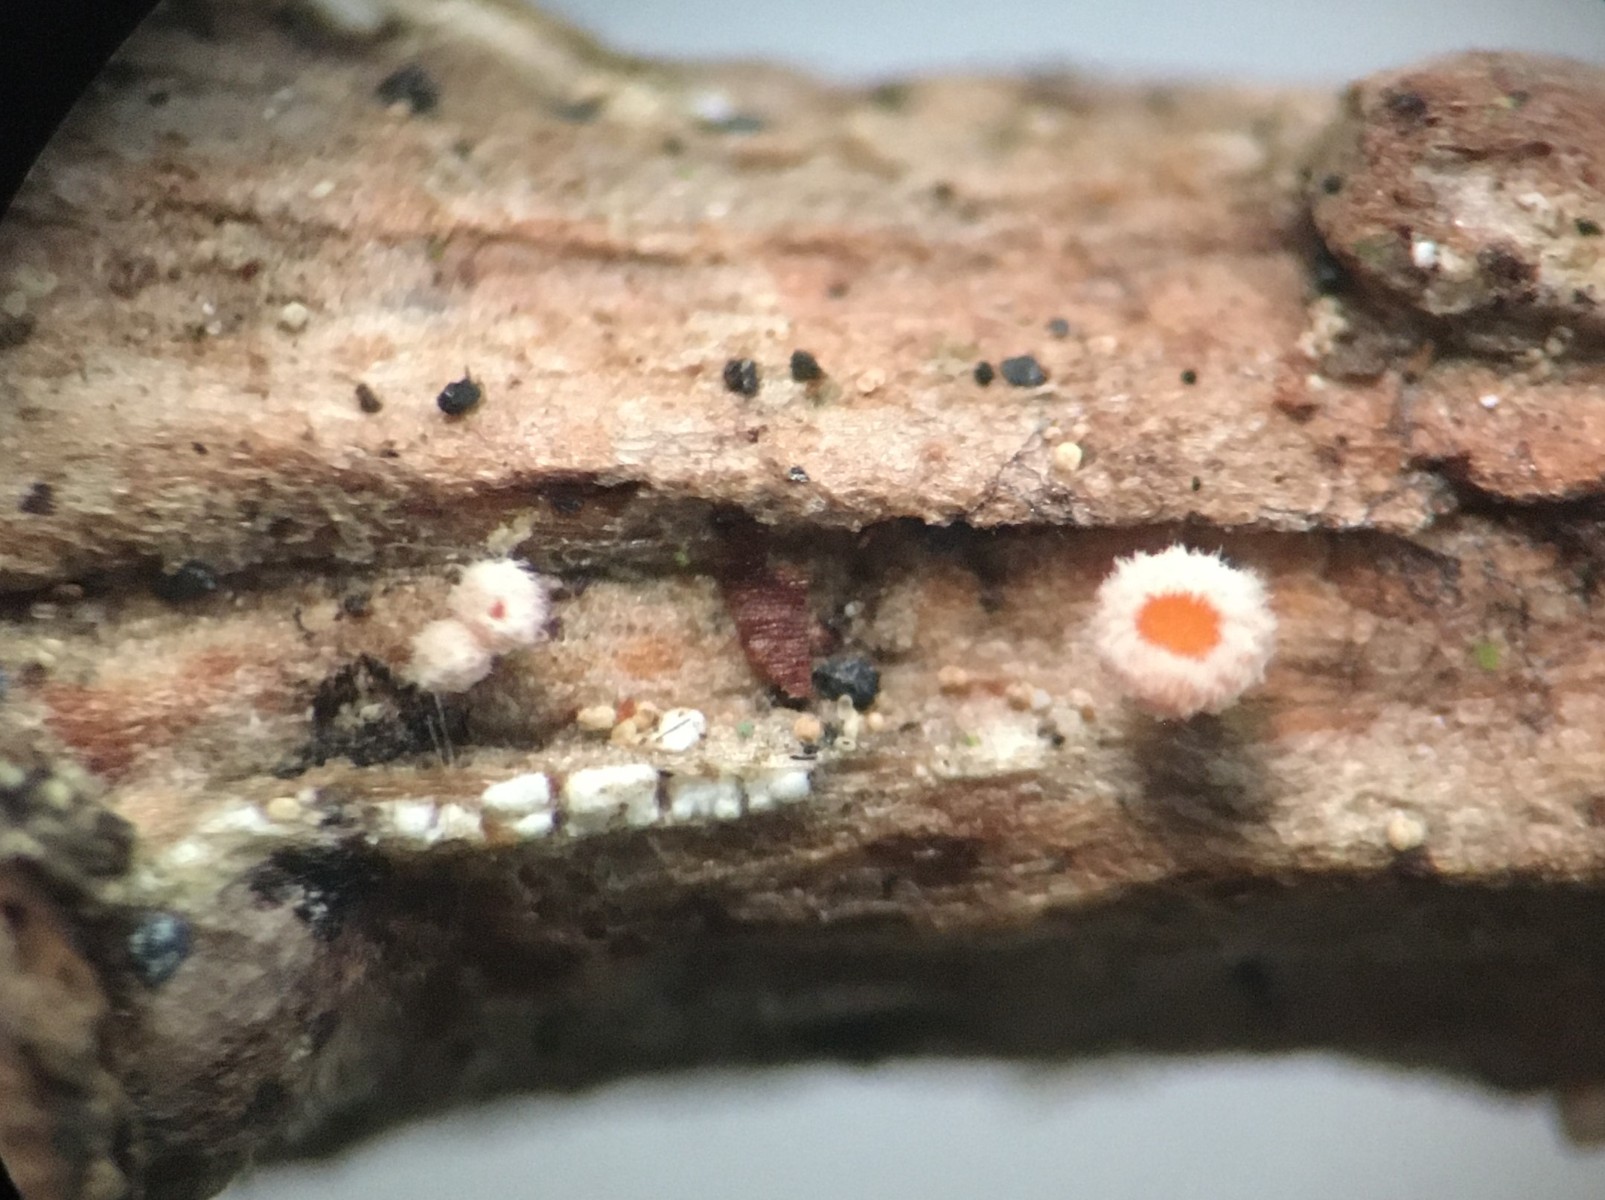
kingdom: Fungi
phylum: Ascomycota
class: Leotiomycetes
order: Helotiales
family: Lachnaceae
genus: Lachnellula
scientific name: Lachnellula occidentalis
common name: Larch disco
